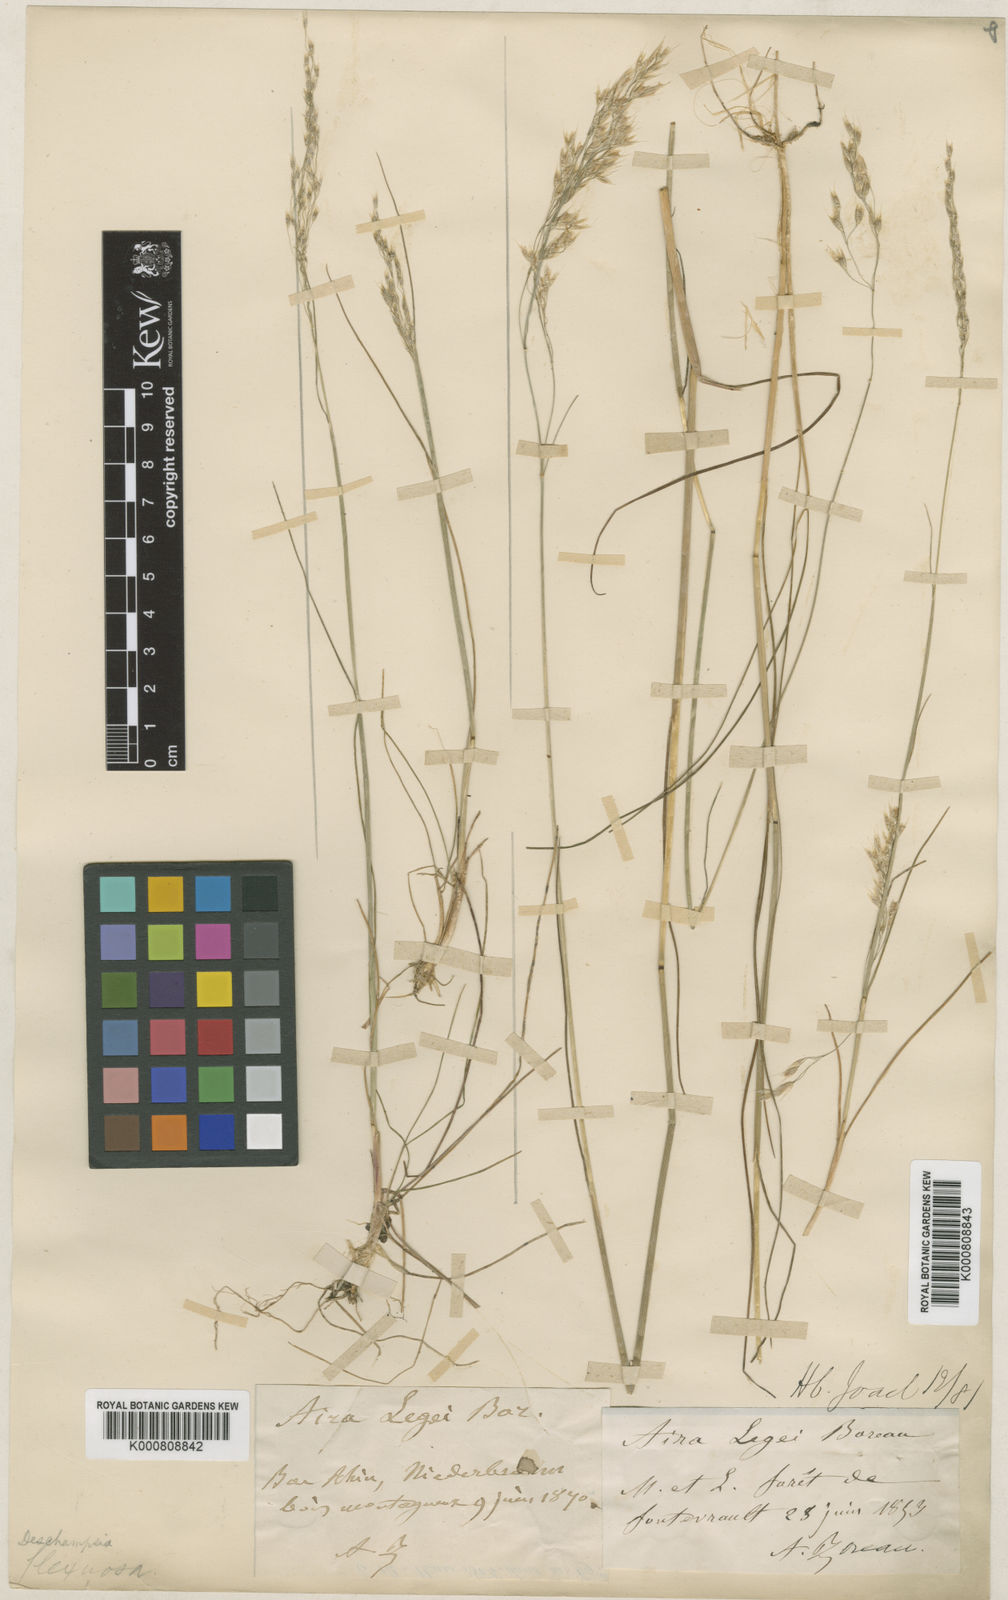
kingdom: Plantae
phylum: Tracheophyta
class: Liliopsida
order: Poales
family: Poaceae
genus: Avenella
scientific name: Avenella flexuosa
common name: Wavy hairgrass
